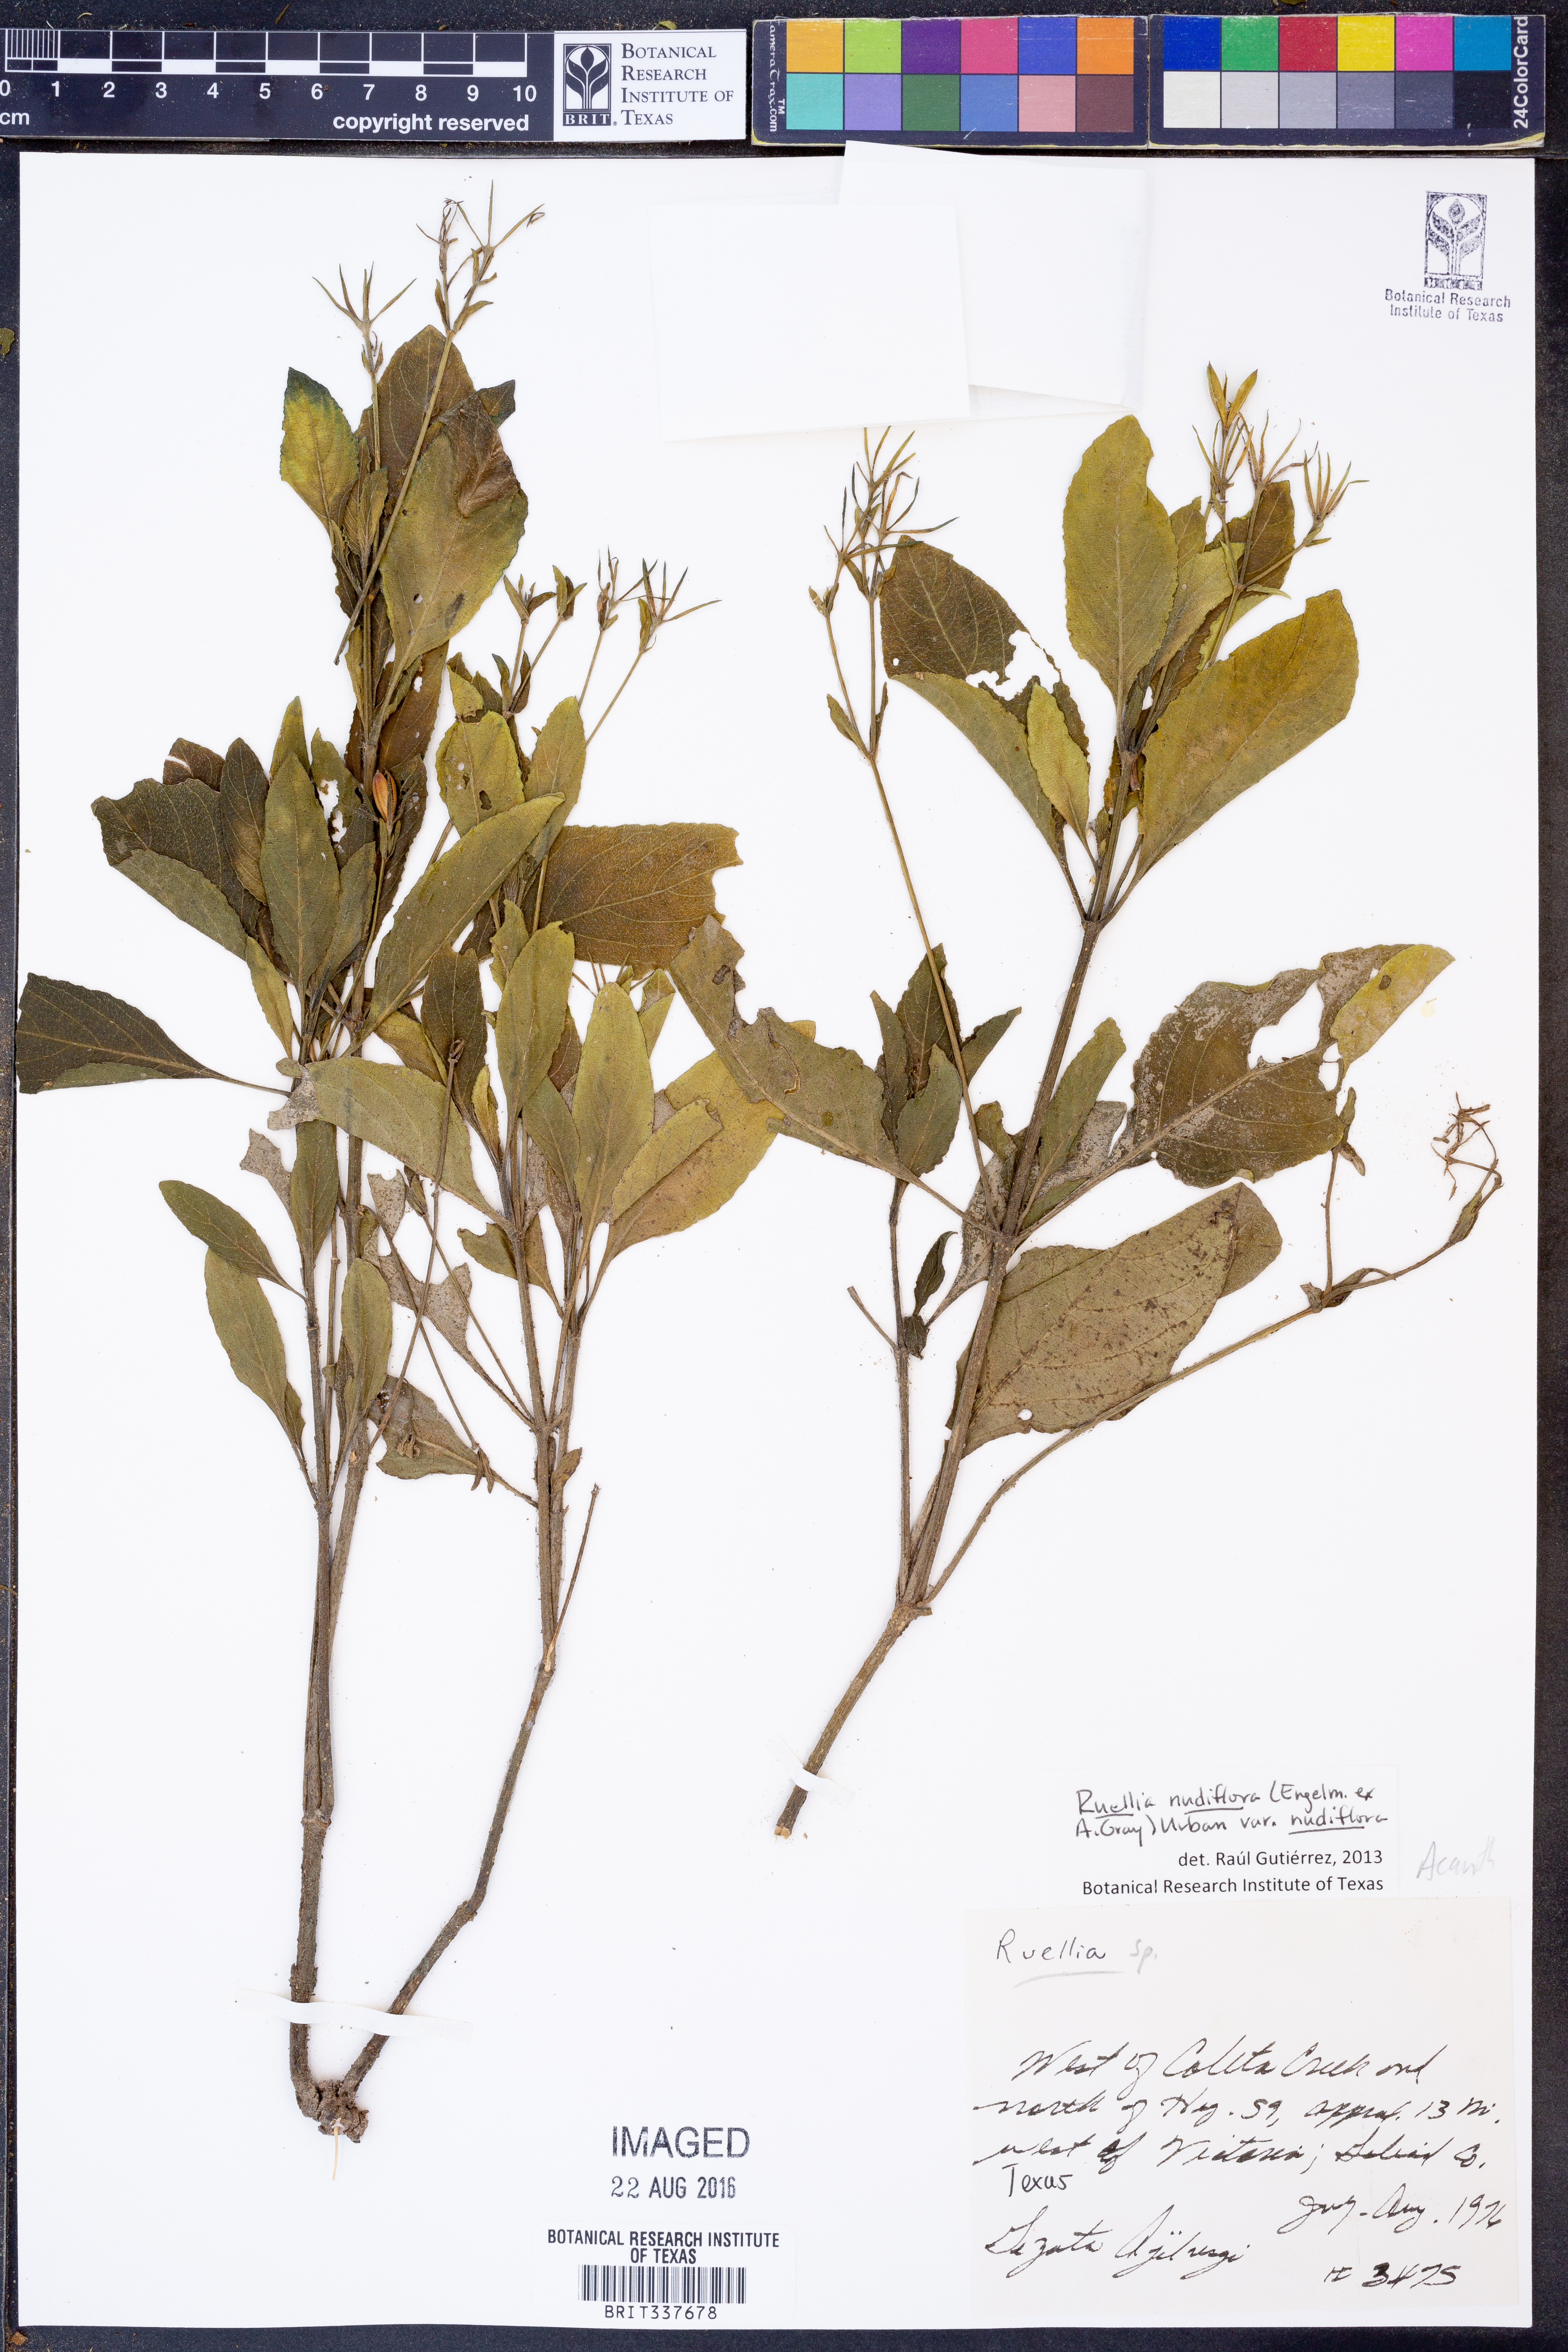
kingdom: Plantae
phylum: Tracheophyta
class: Magnoliopsida
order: Lamiales
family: Acanthaceae
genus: Ruellia
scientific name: Ruellia ciliatiflora
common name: Hairyflower wild petunia
